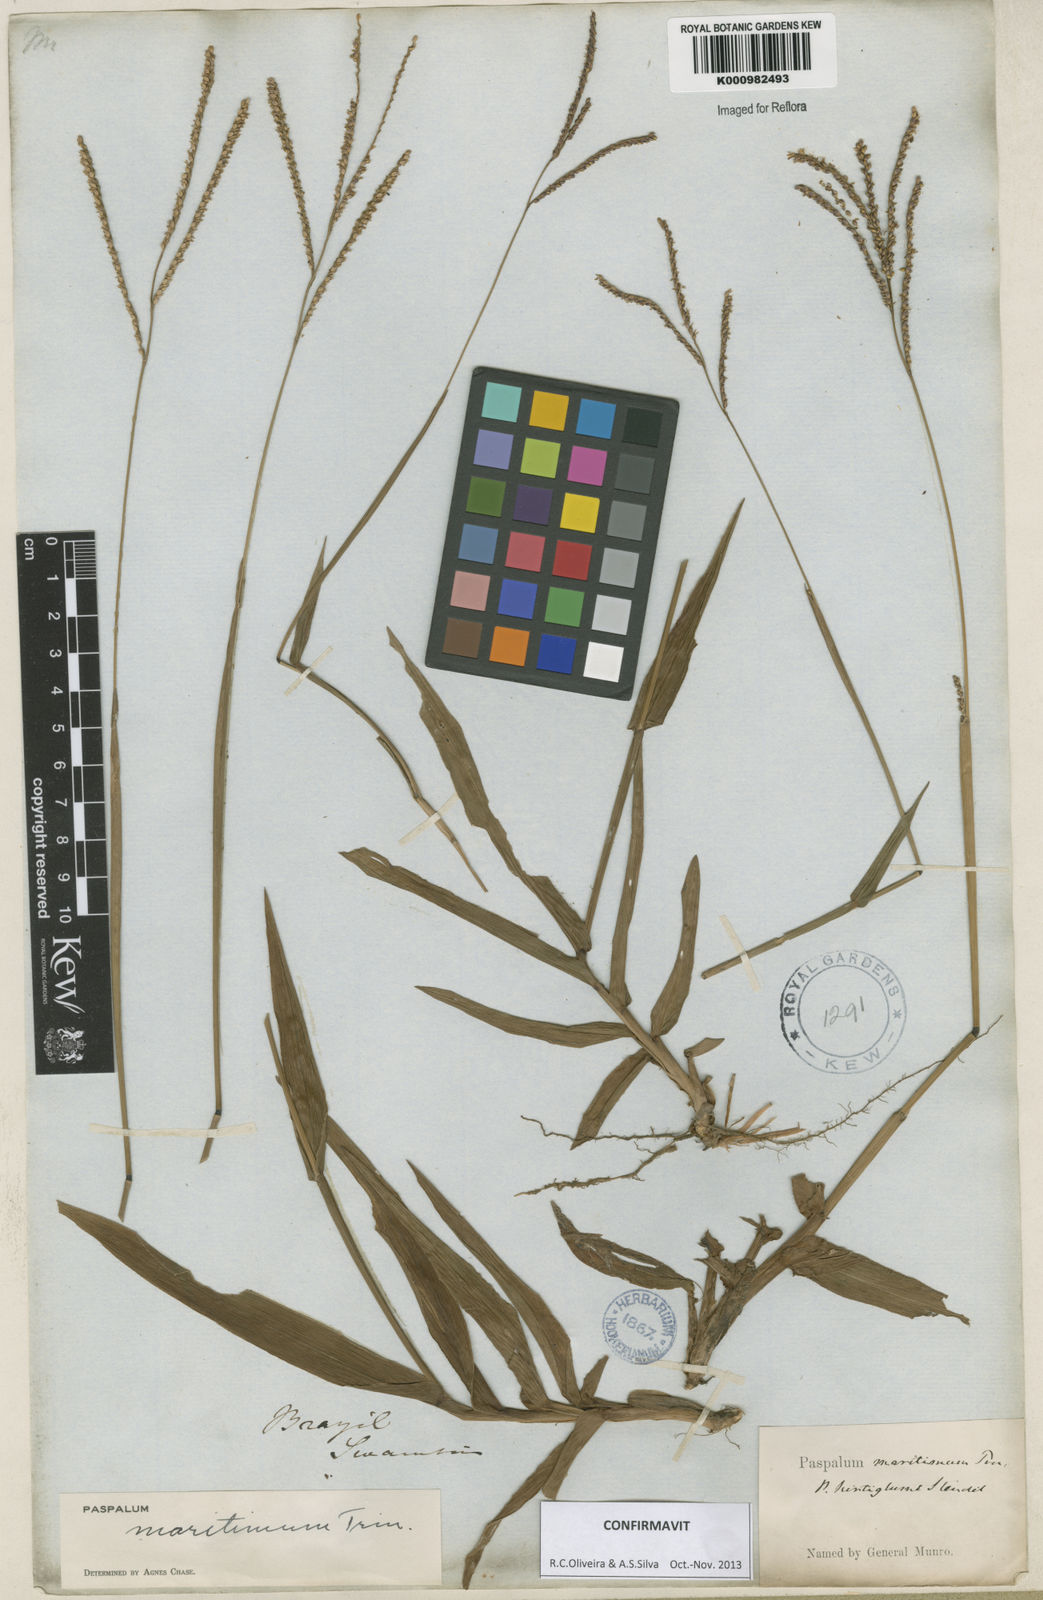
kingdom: Plantae
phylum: Tracheophyta
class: Liliopsida
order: Poales
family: Poaceae
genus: Paspalum
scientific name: Paspalum maritimum
